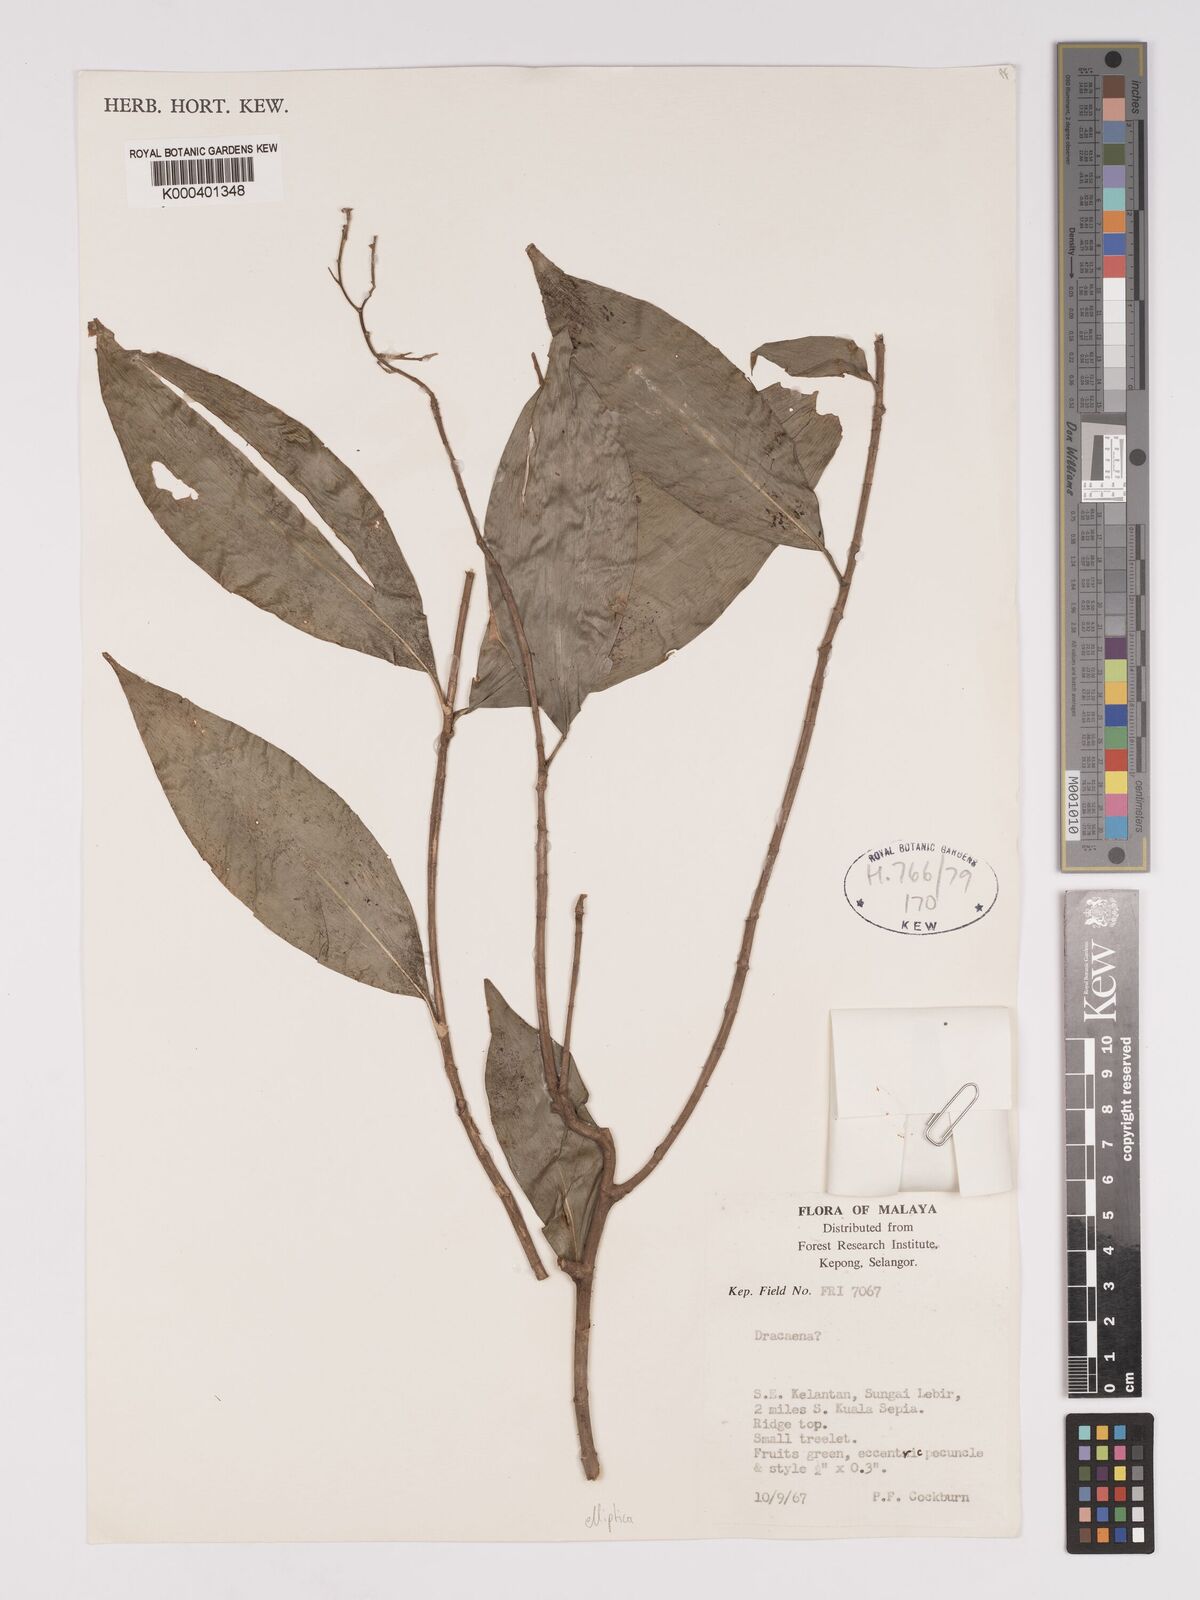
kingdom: Plantae
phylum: Tracheophyta
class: Liliopsida
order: Asparagales
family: Asparagaceae
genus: Dracaena
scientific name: Dracaena elliptica
